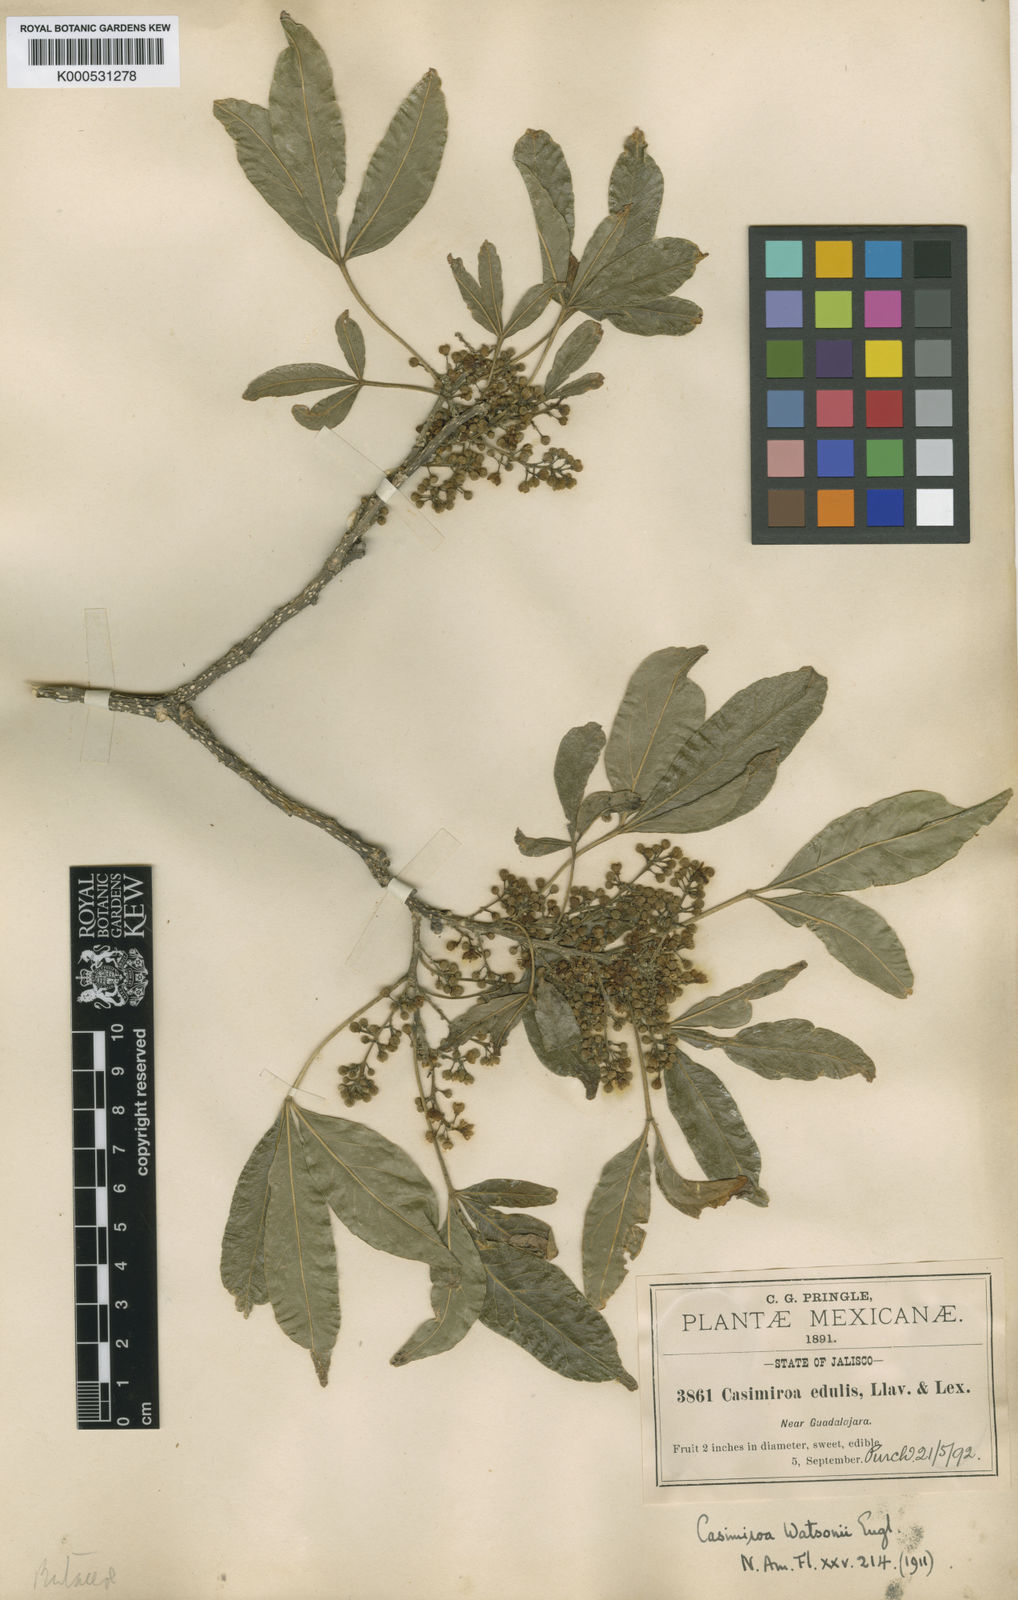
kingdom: Plantae
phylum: Tracheophyta
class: Magnoliopsida
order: Sapindales
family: Rutaceae
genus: Casimiroa
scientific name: Casimiroa
